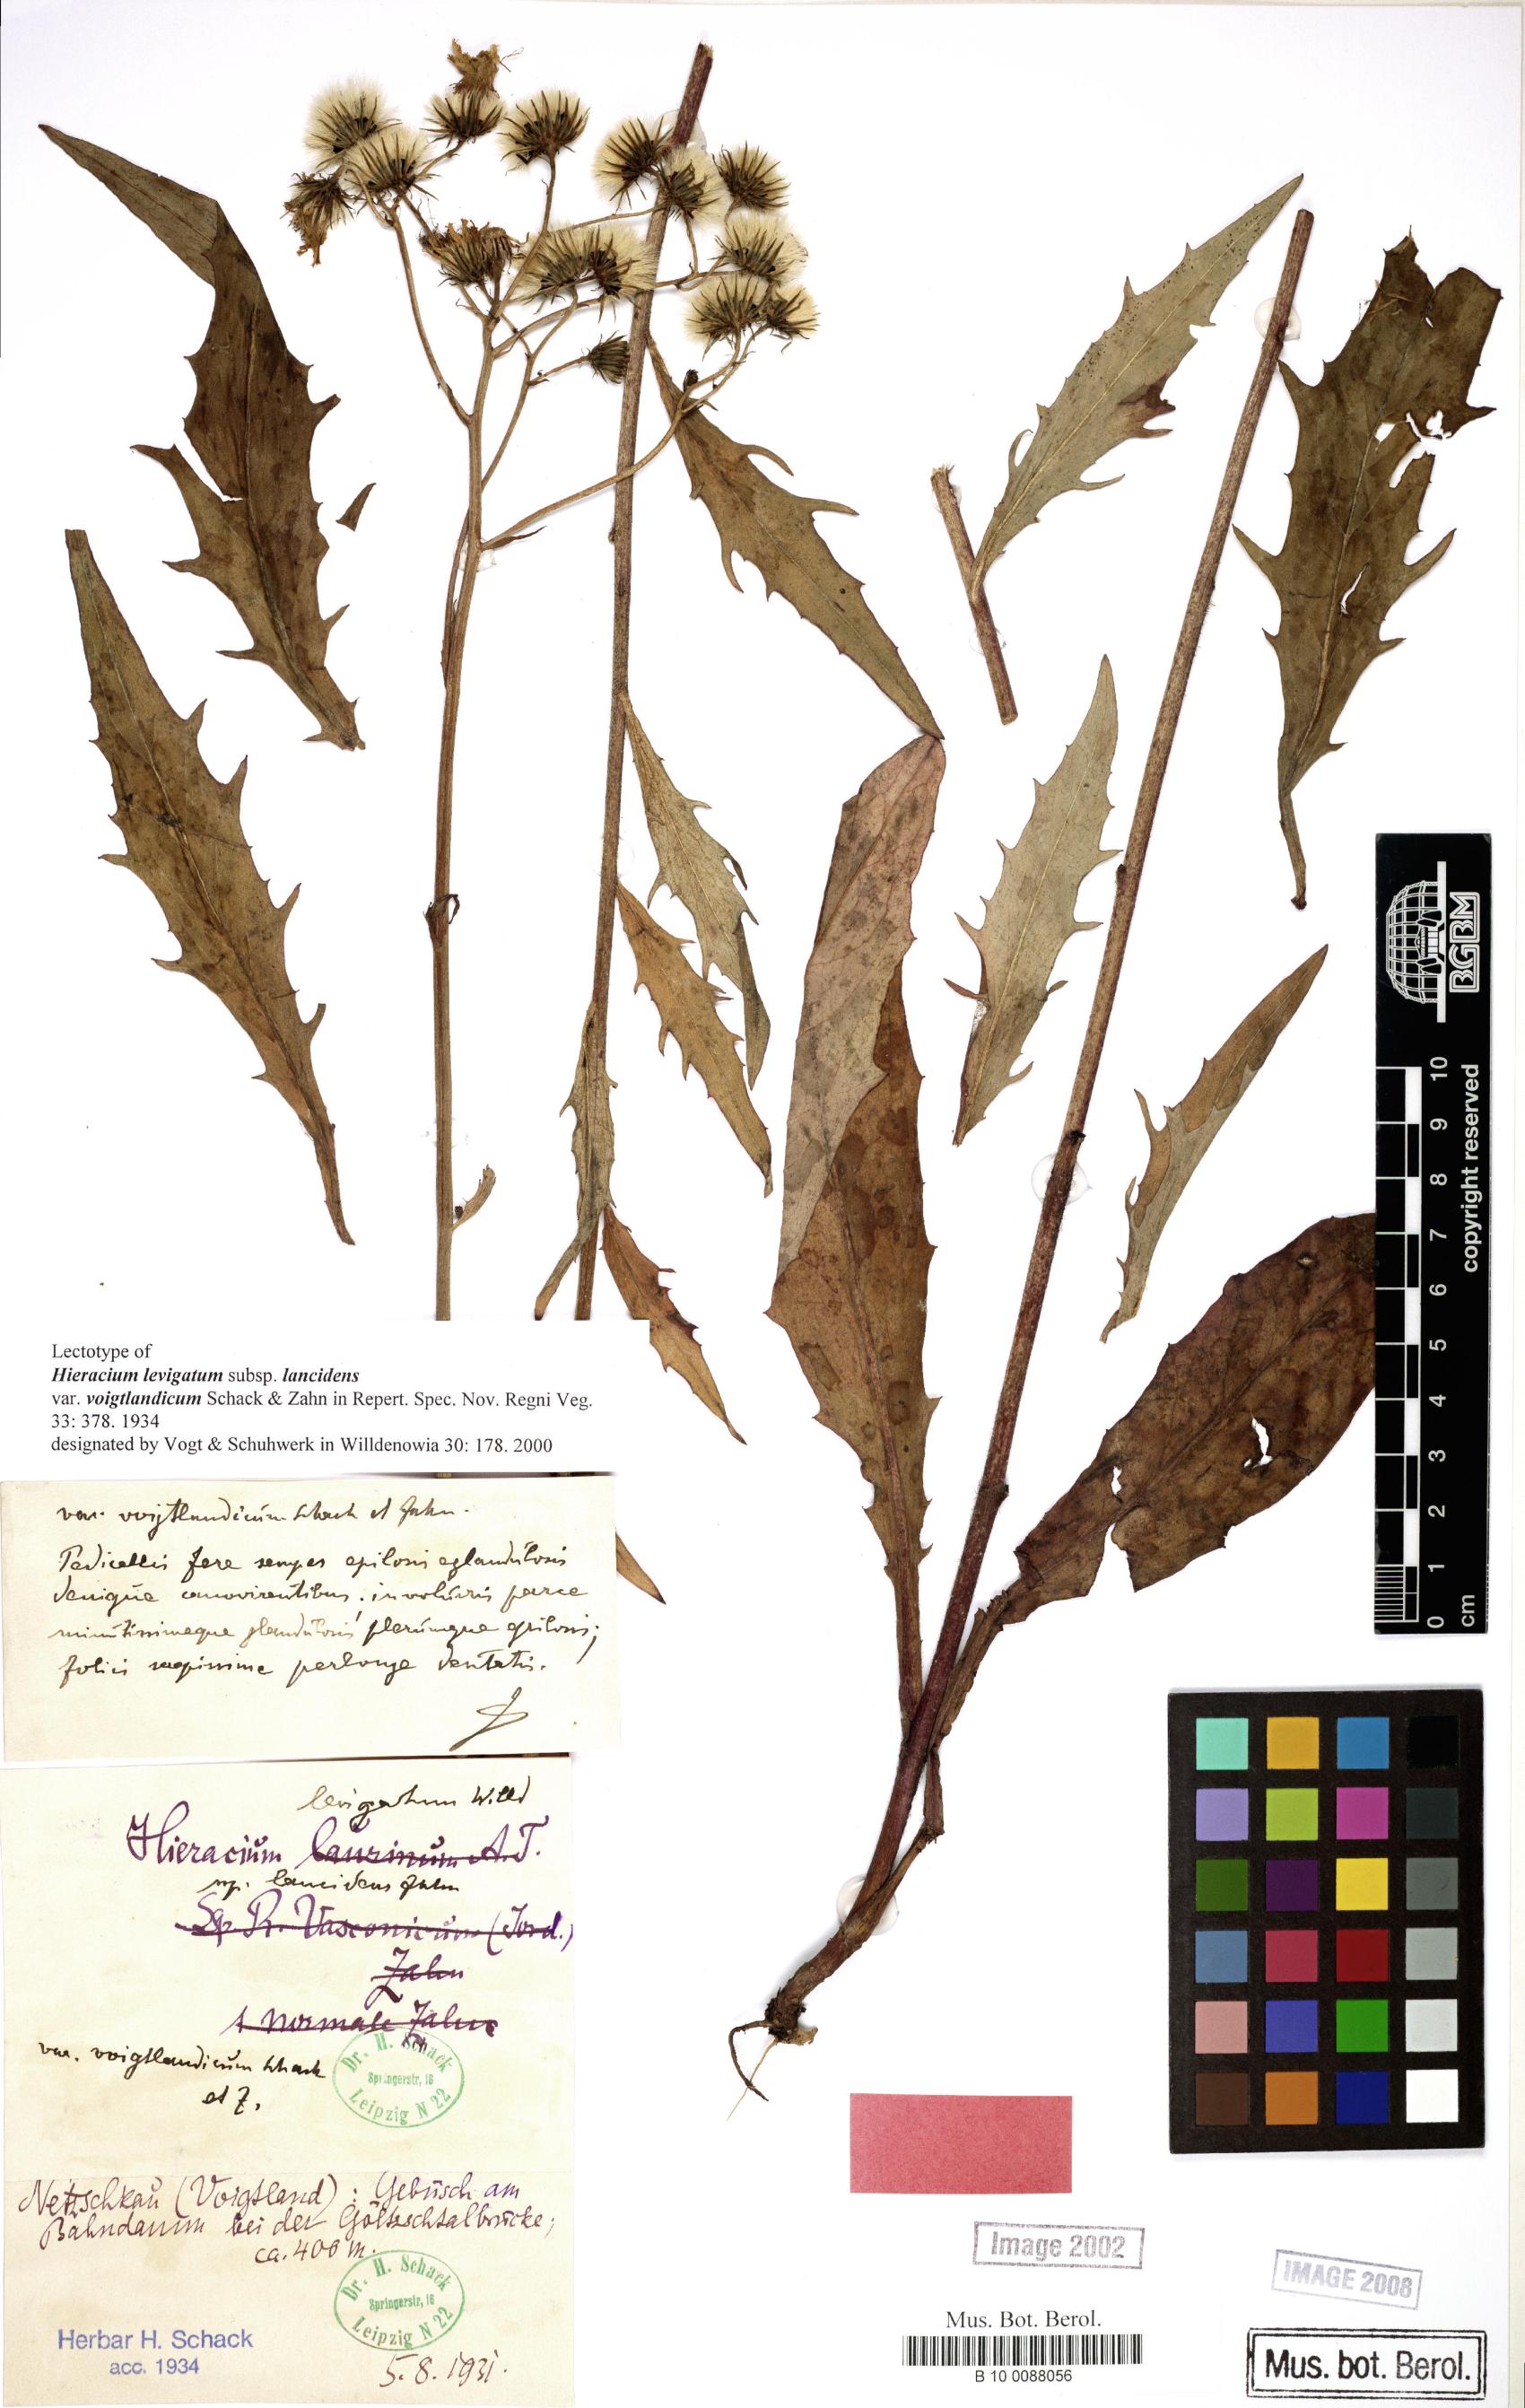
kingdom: Plantae
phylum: Tracheophyta
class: Magnoliopsida
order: Asterales
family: Asteraceae
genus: Hieracium
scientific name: Hieracium laevigatum
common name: Smooth hawkweed
